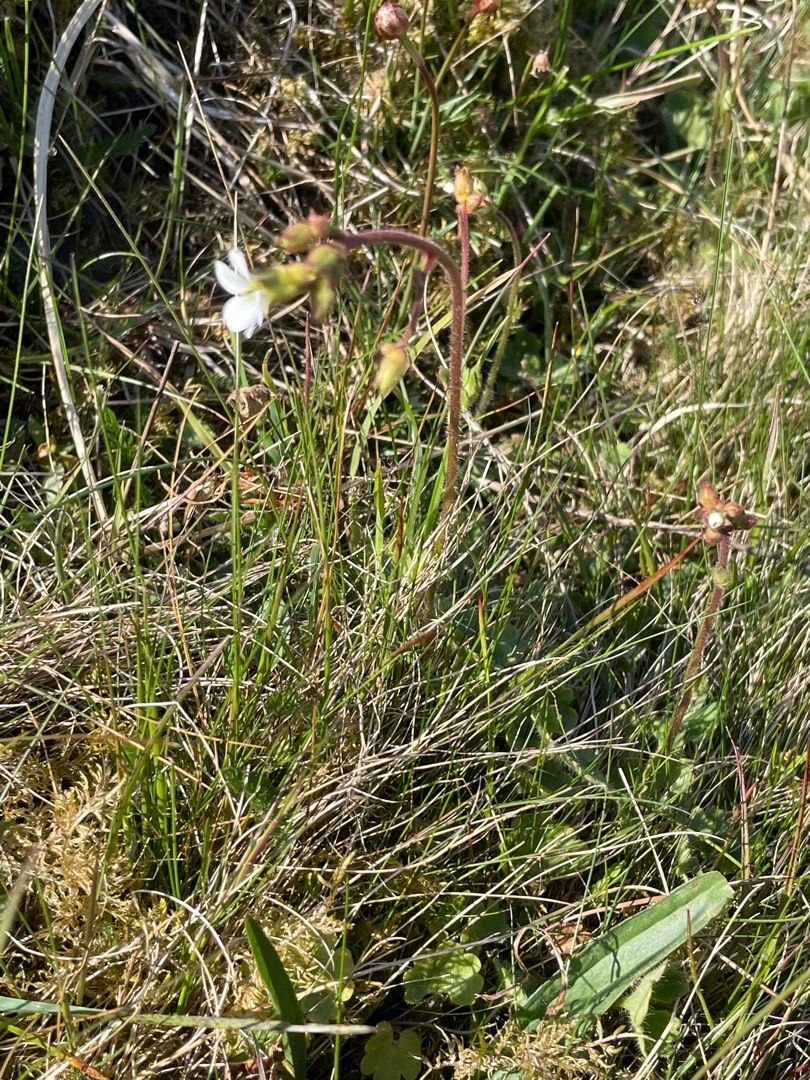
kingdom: Plantae
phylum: Tracheophyta
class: Magnoliopsida
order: Saxifragales
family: Saxifragaceae
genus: Saxifraga
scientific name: Saxifraga granulata
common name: Kornet stenbræk
